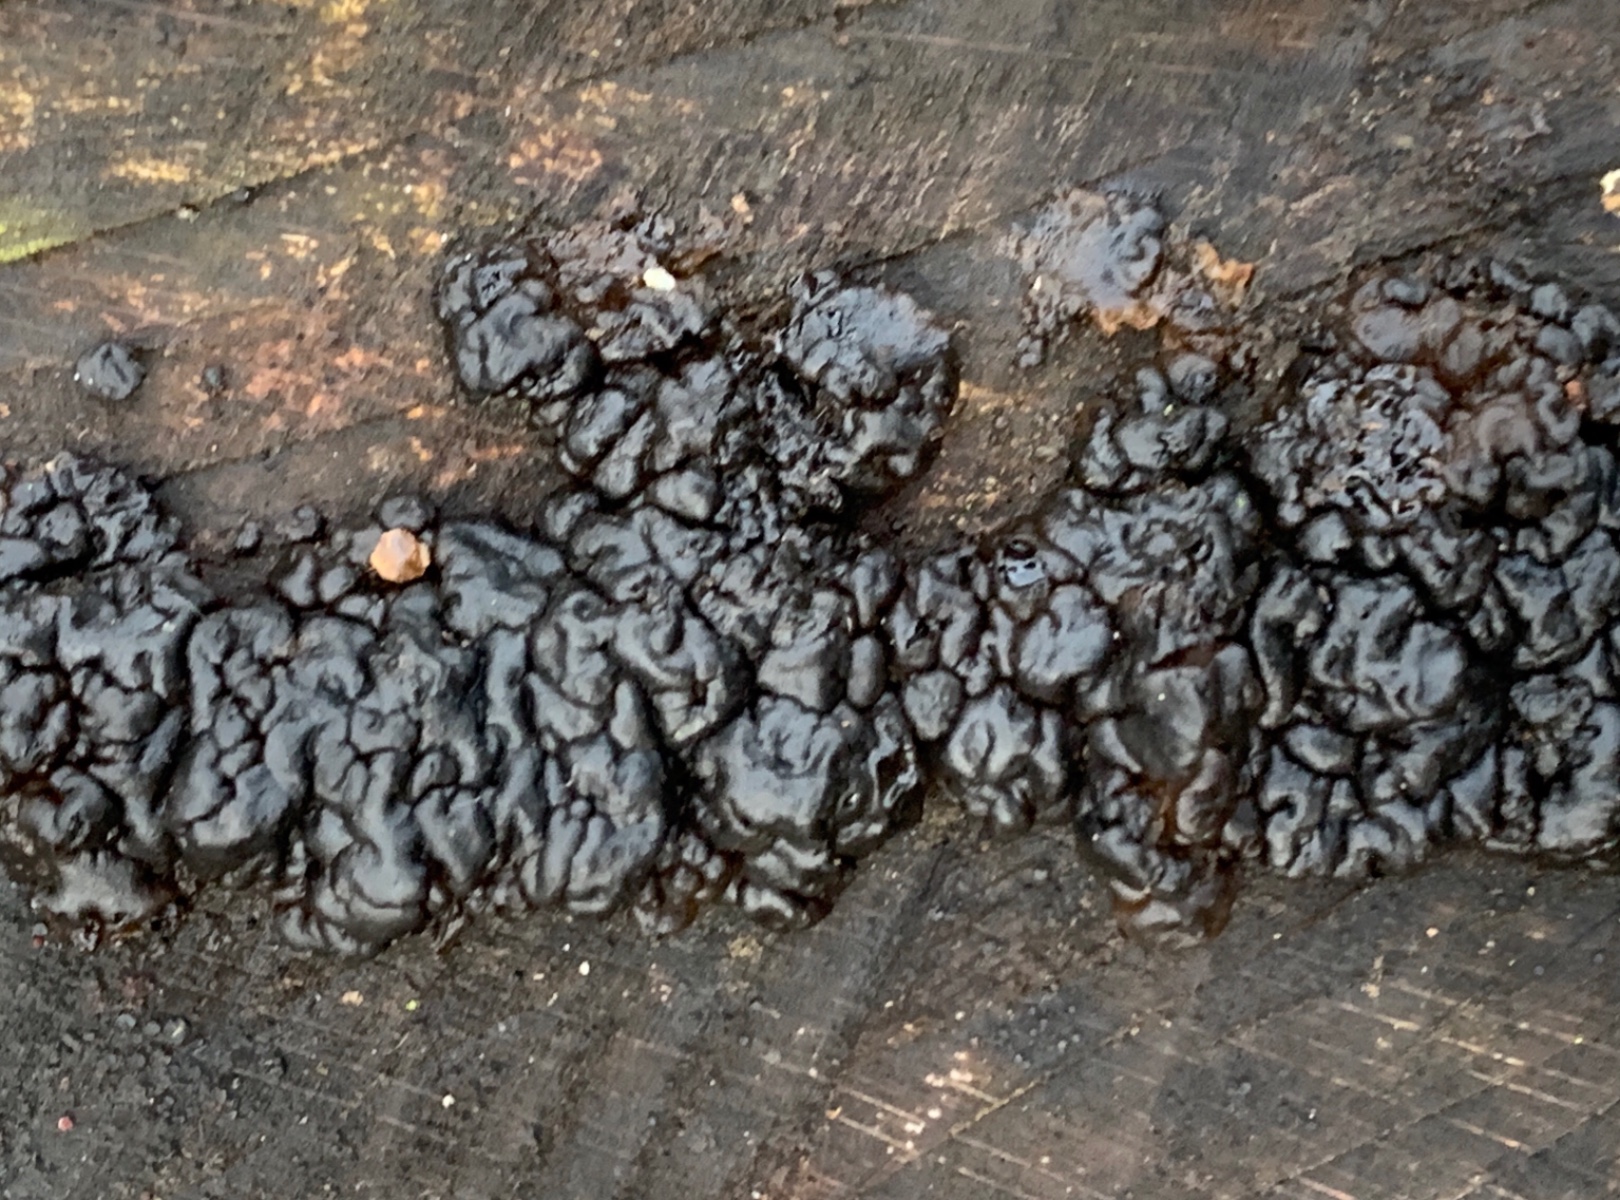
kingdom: Fungi
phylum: Basidiomycota
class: Agaricomycetes
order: Auriculariales
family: Auriculariaceae
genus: Exidia
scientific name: Exidia nigricans
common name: almindelig bævretop
